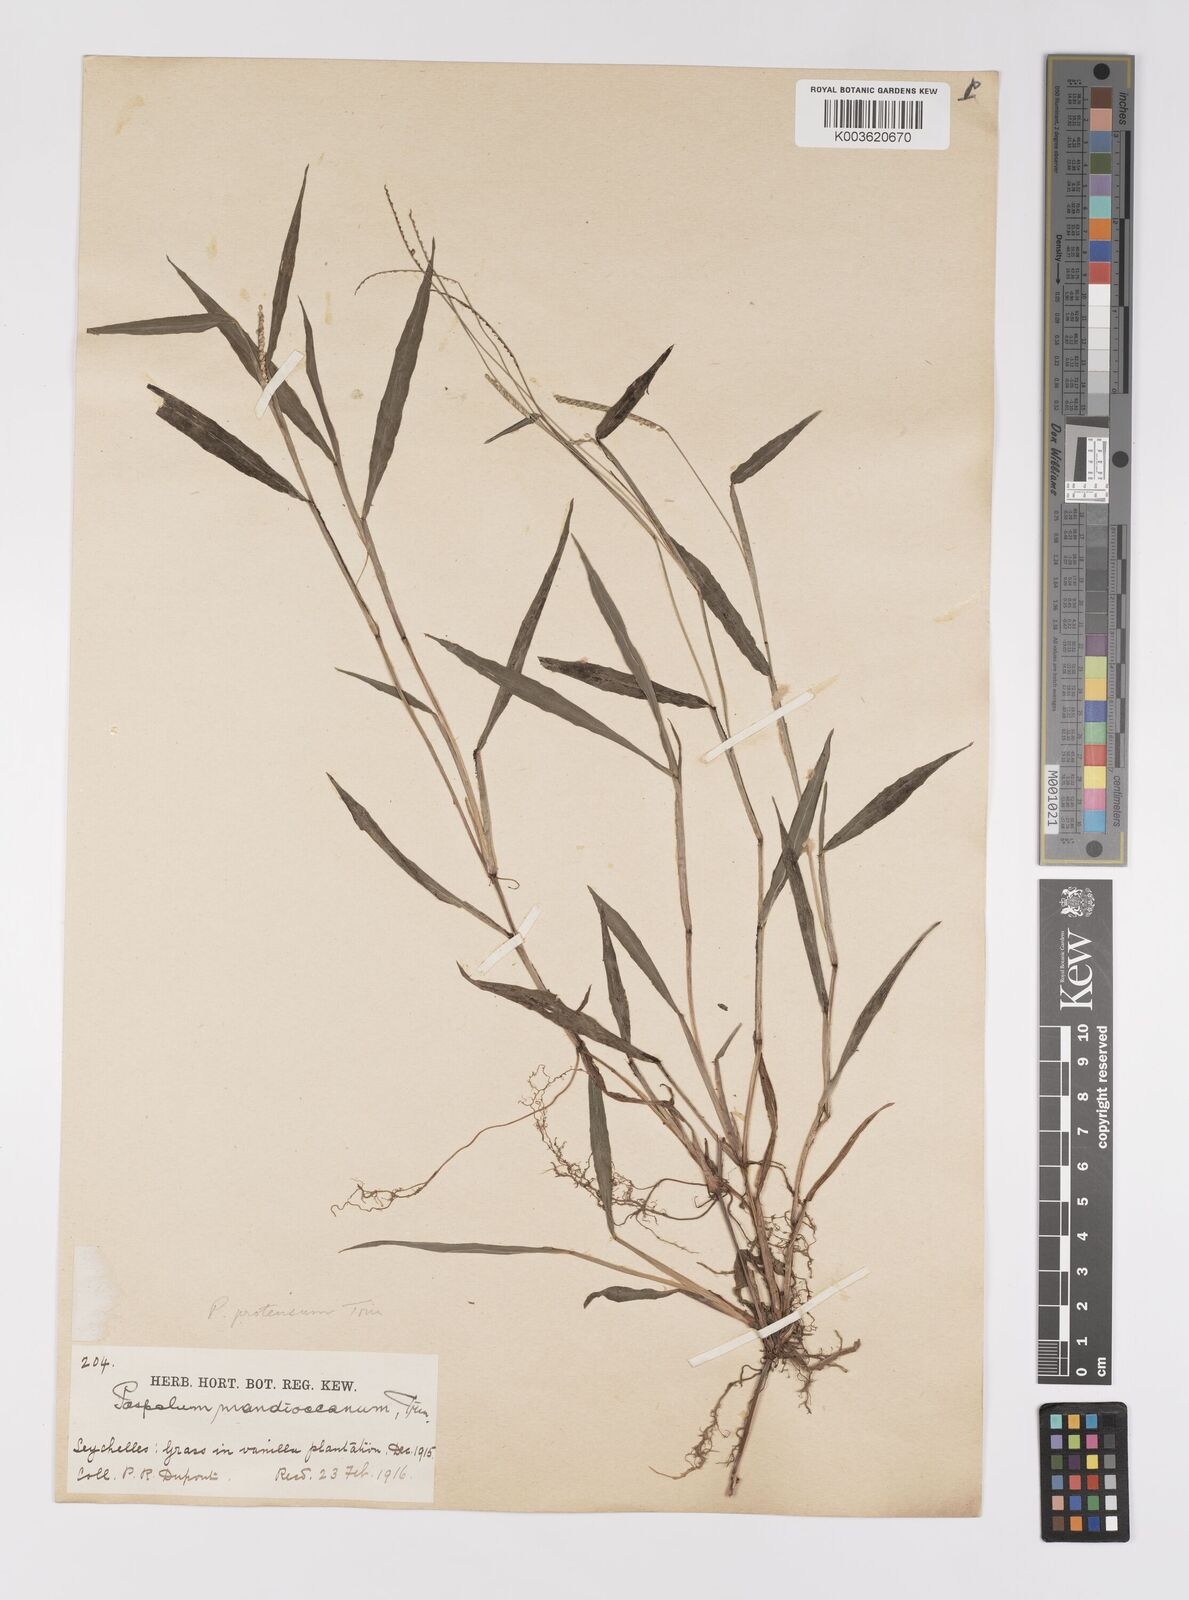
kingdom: Plantae
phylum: Tracheophyta
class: Liliopsida
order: Poales
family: Poaceae
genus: Paspalum
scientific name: Paspalum nutans
